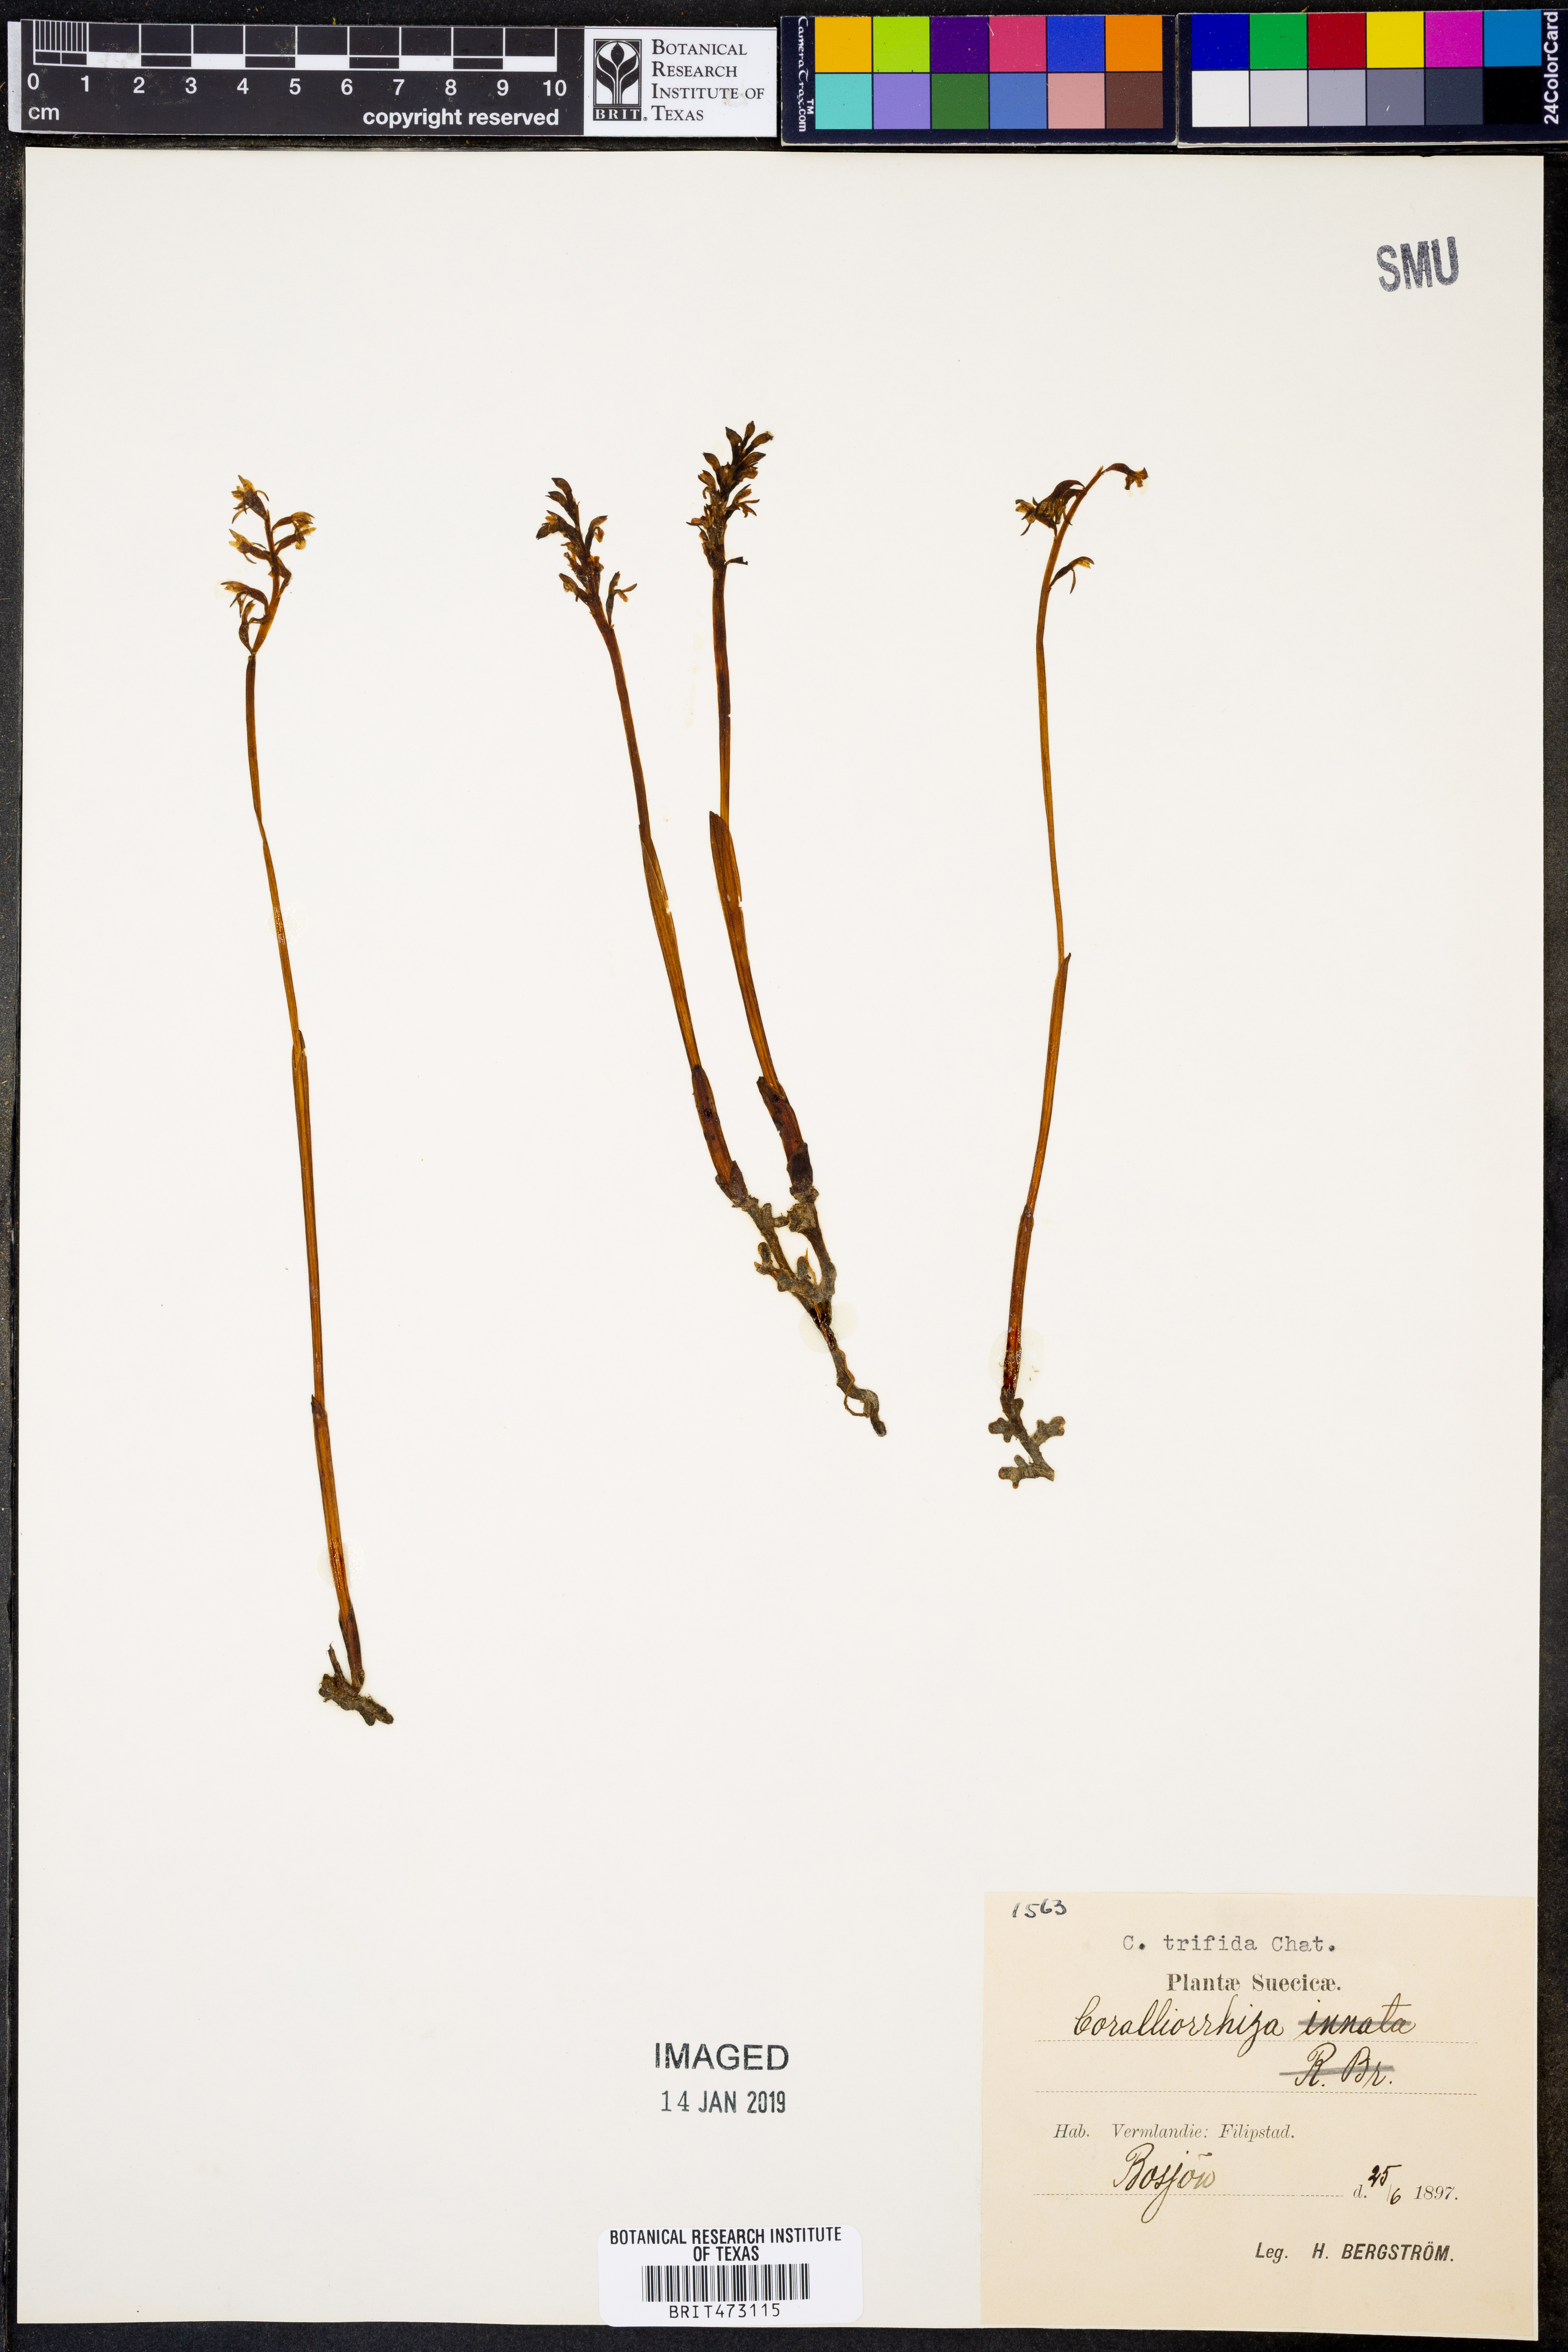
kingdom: Plantae
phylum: Tracheophyta
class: Liliopsida
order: Asparagales
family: Orchidaceae
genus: Corallorhiza
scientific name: Corallorhiza trifida
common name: Yellow coralroot
